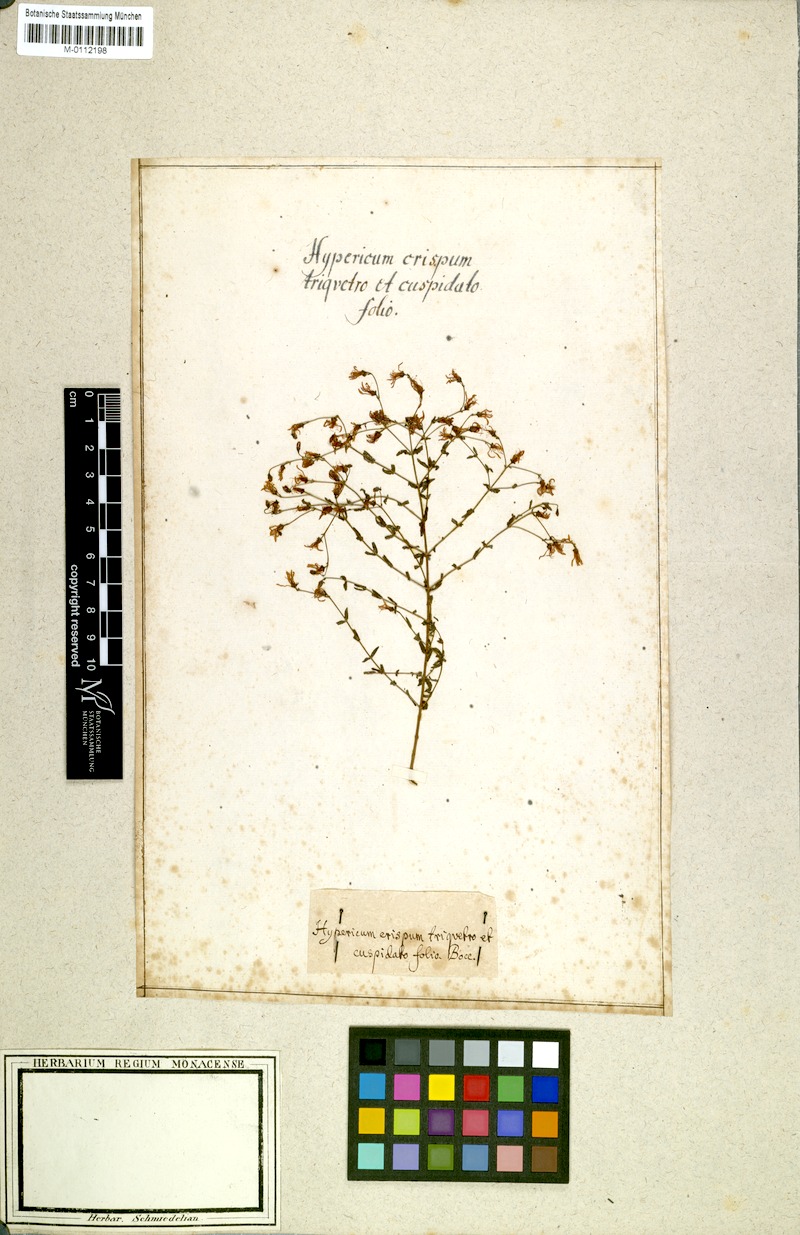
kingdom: Plantae
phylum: Tracheophyta
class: Magnoliopsida
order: Malpighiales
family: Hypericaceae
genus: Hypericum
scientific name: Hypericum tomentosum
